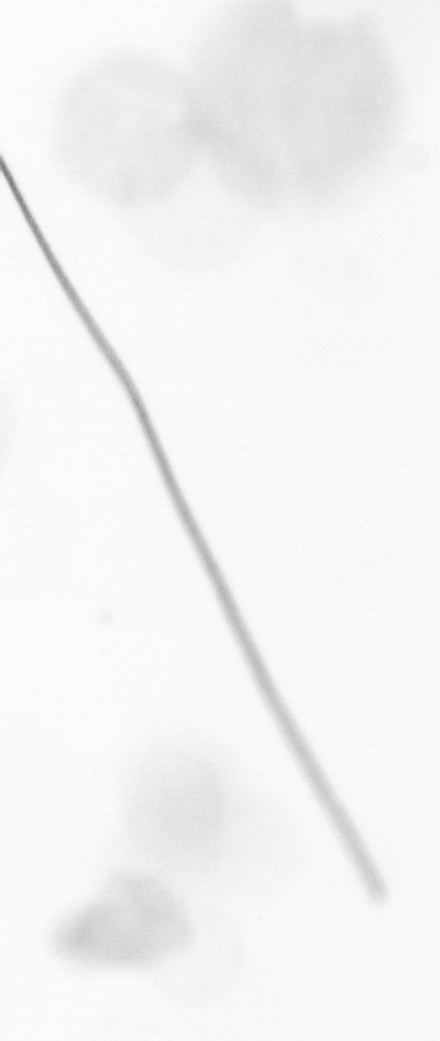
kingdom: Chromista
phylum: Ochrophyta
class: Bacillariophyceae
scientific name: Bacillariophyceae
